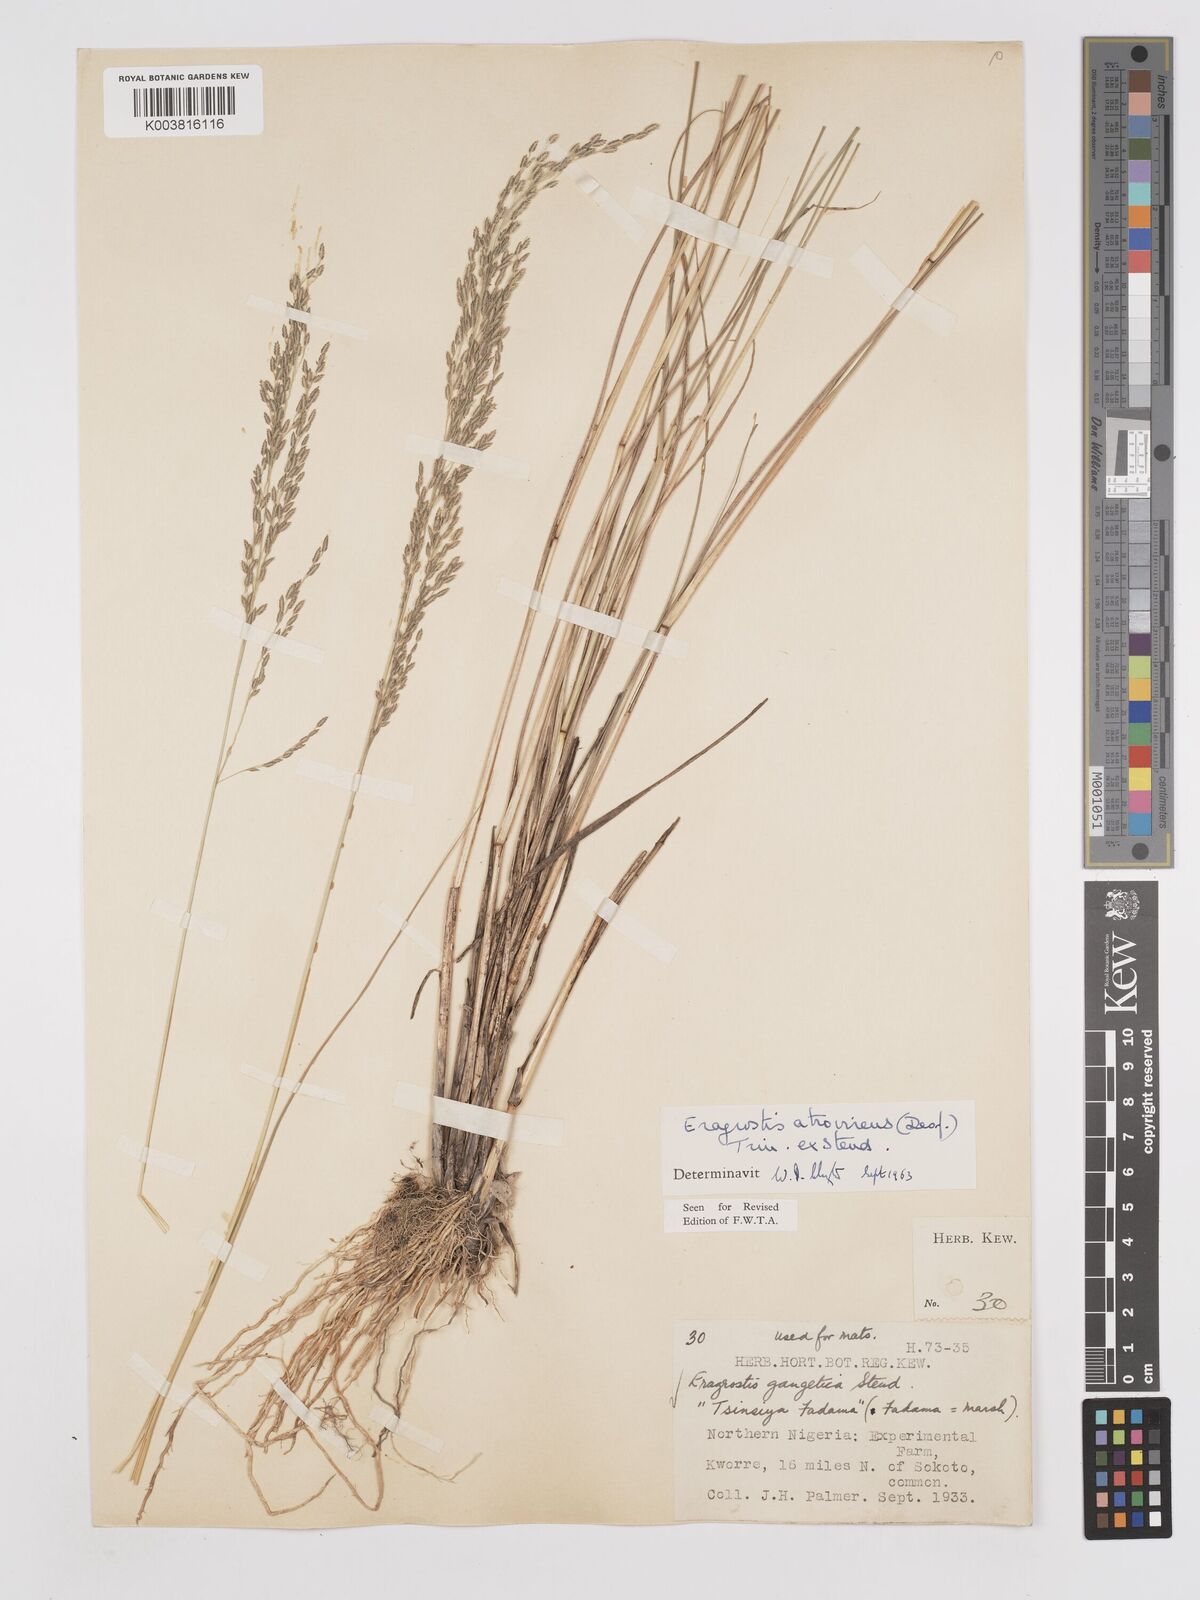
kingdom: Plantae
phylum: Tracheophyta
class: Liliopsida
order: Poales
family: Poaceae
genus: Eragrostis
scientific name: Eragrostis atrovirens
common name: Thalia lovegrass
